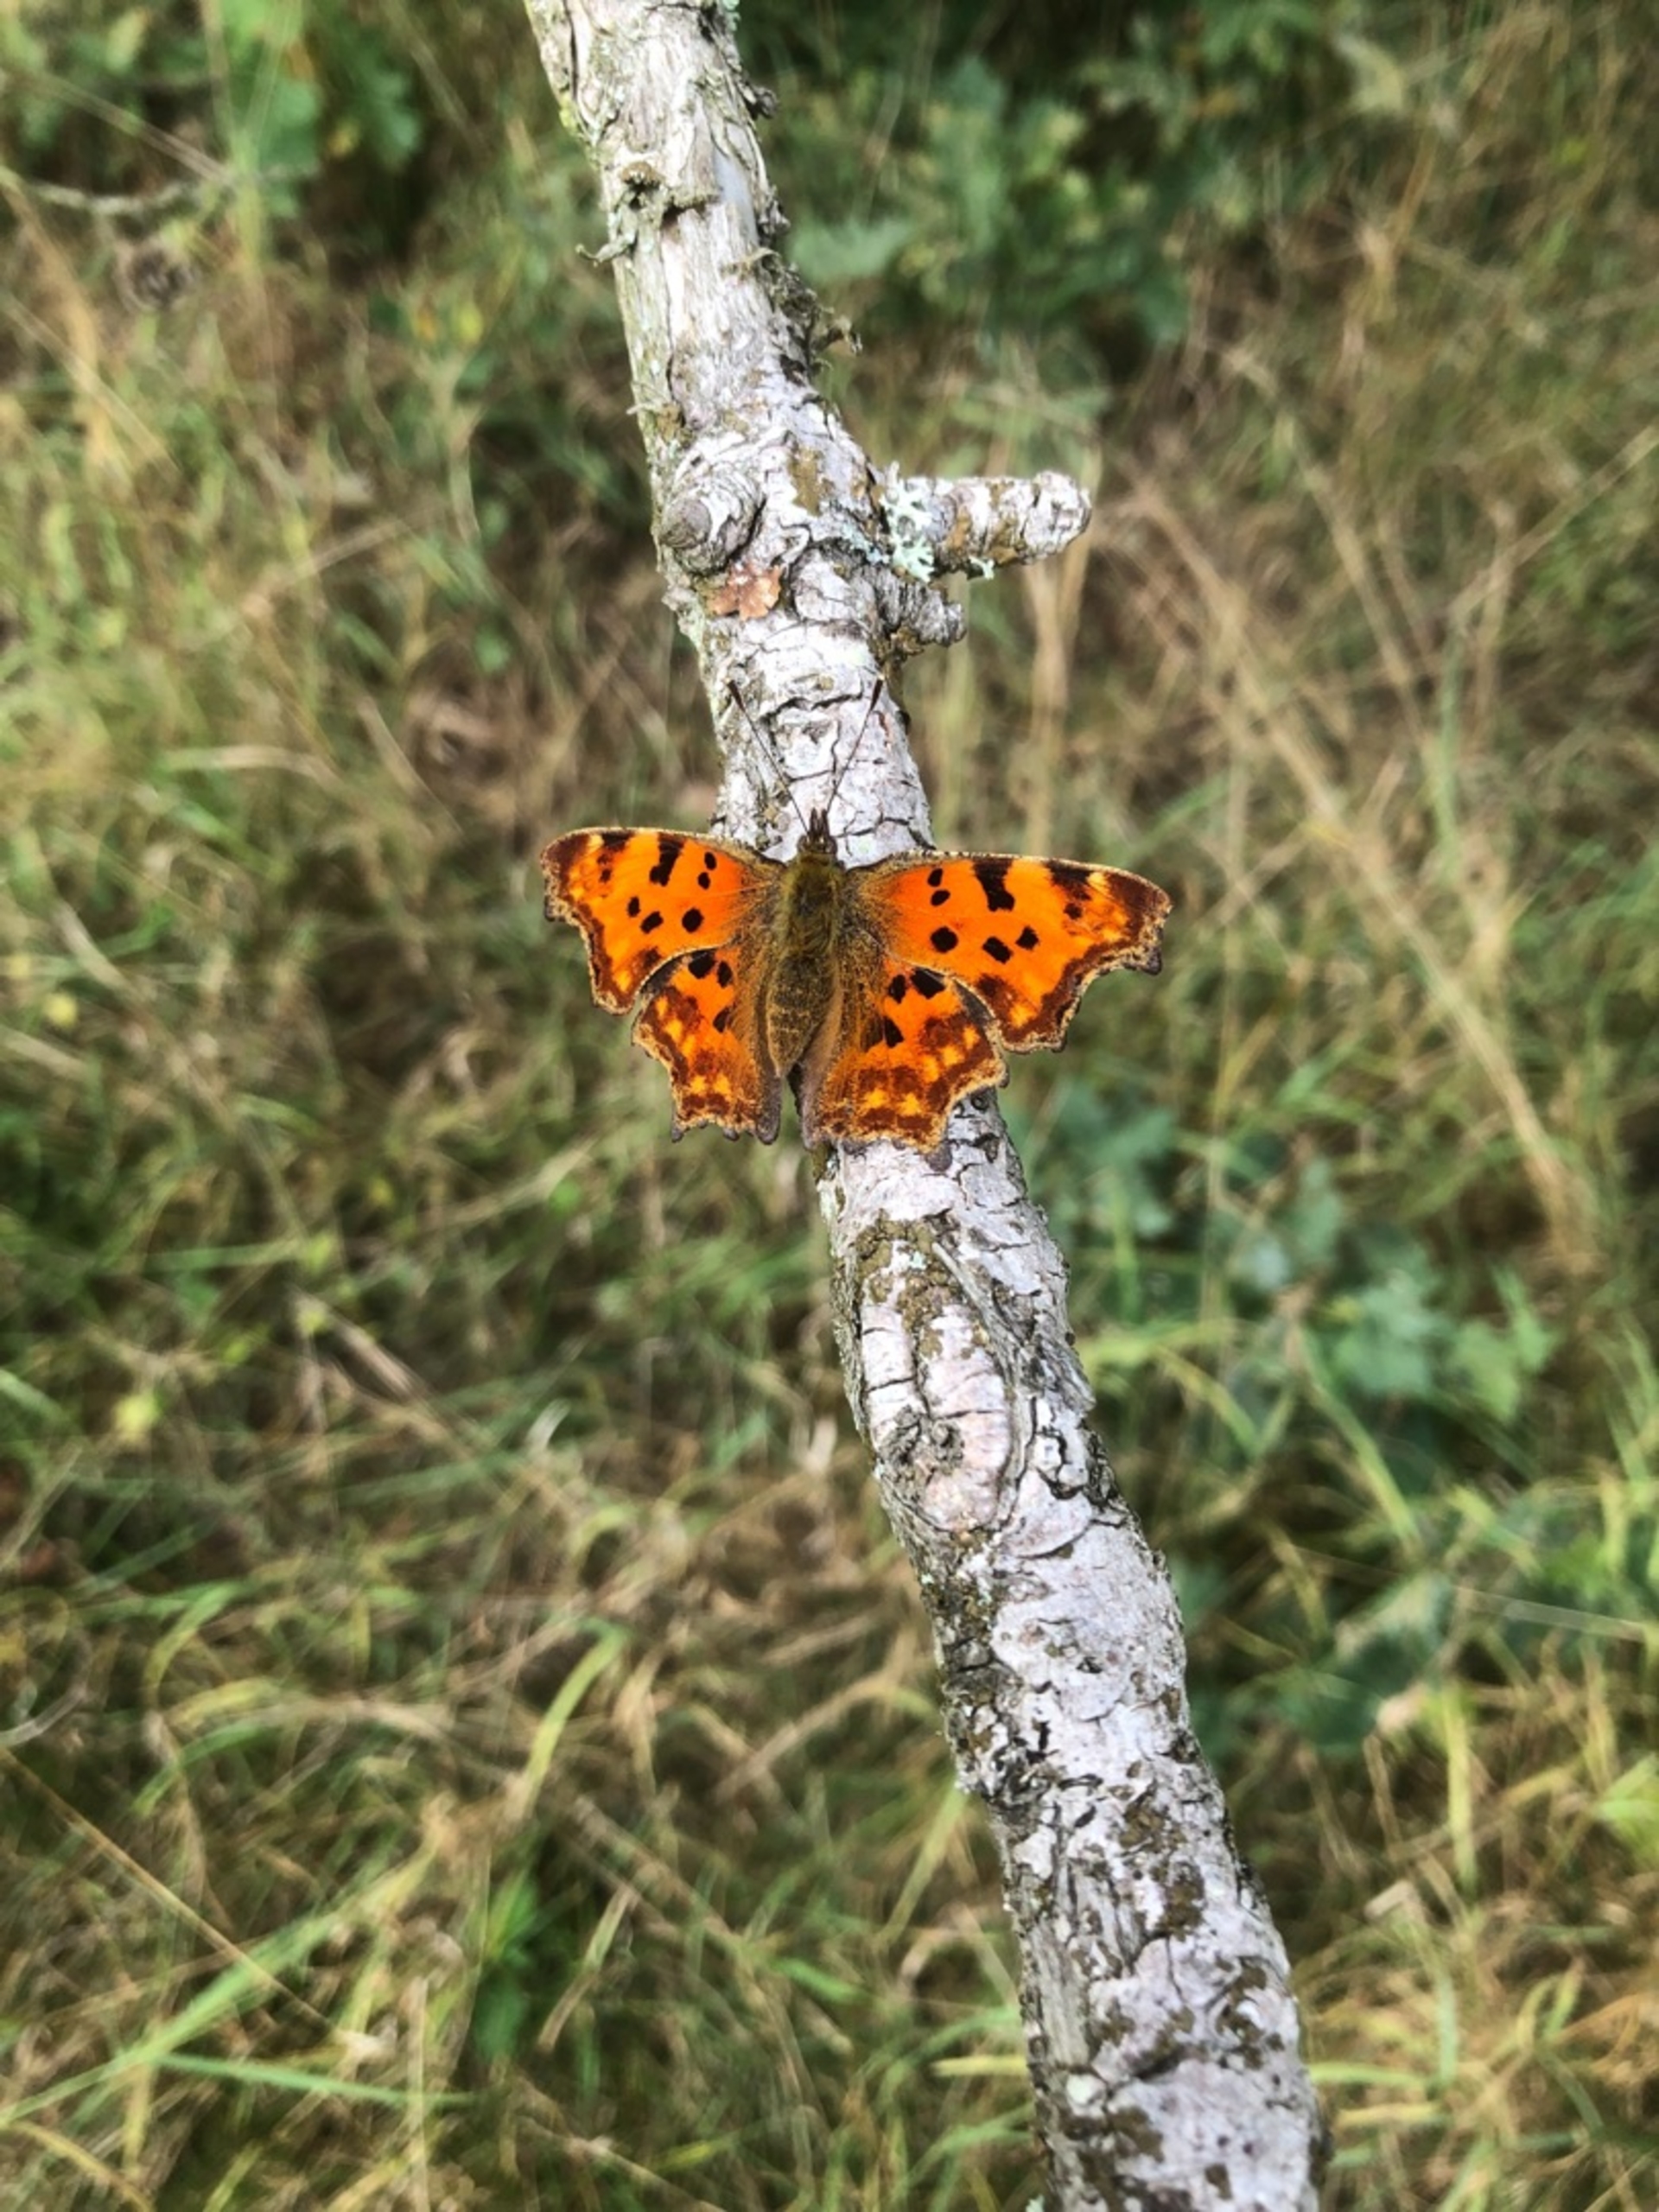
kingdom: Animalia
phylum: Arthropoda
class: Insecta
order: Lepidoptera
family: Nymphalidae
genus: Polygonia
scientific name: Polygonia c-album
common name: Det hvide C
